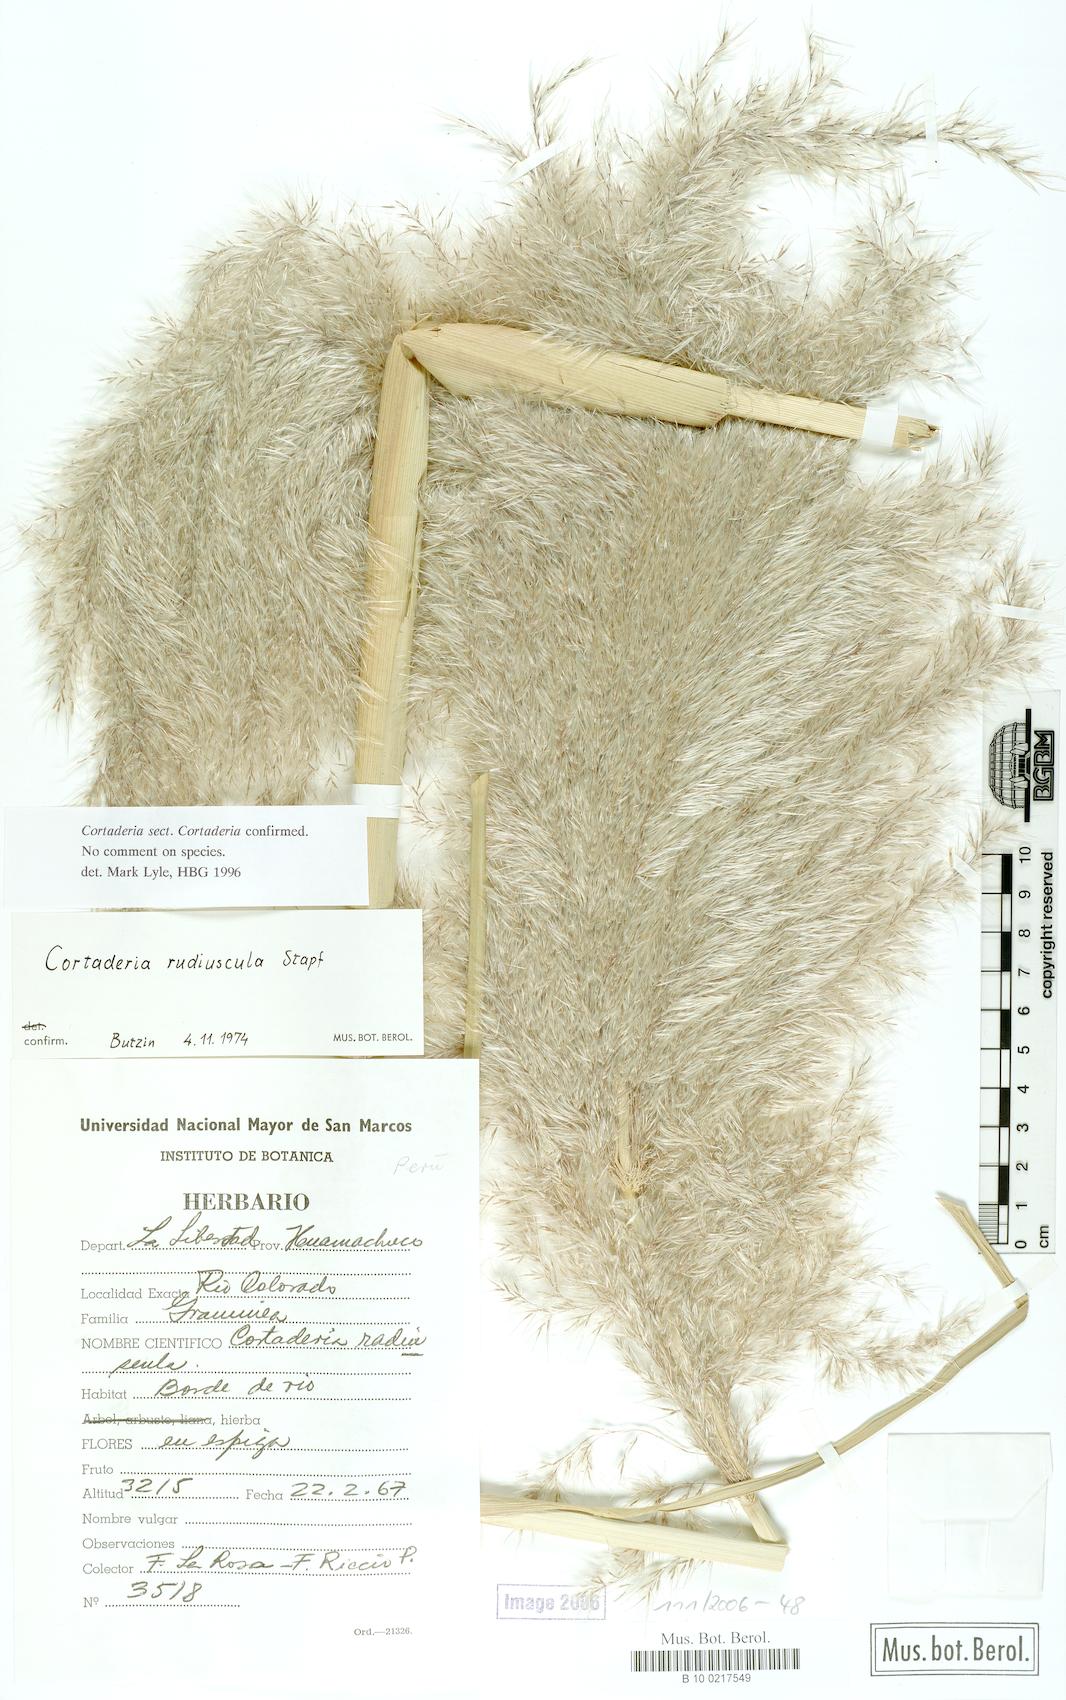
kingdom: Plantae
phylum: Tracheophyta
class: Liliopsida
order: Poales
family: Poaceae
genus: Cortaderia
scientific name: Cortaderia speciosa
